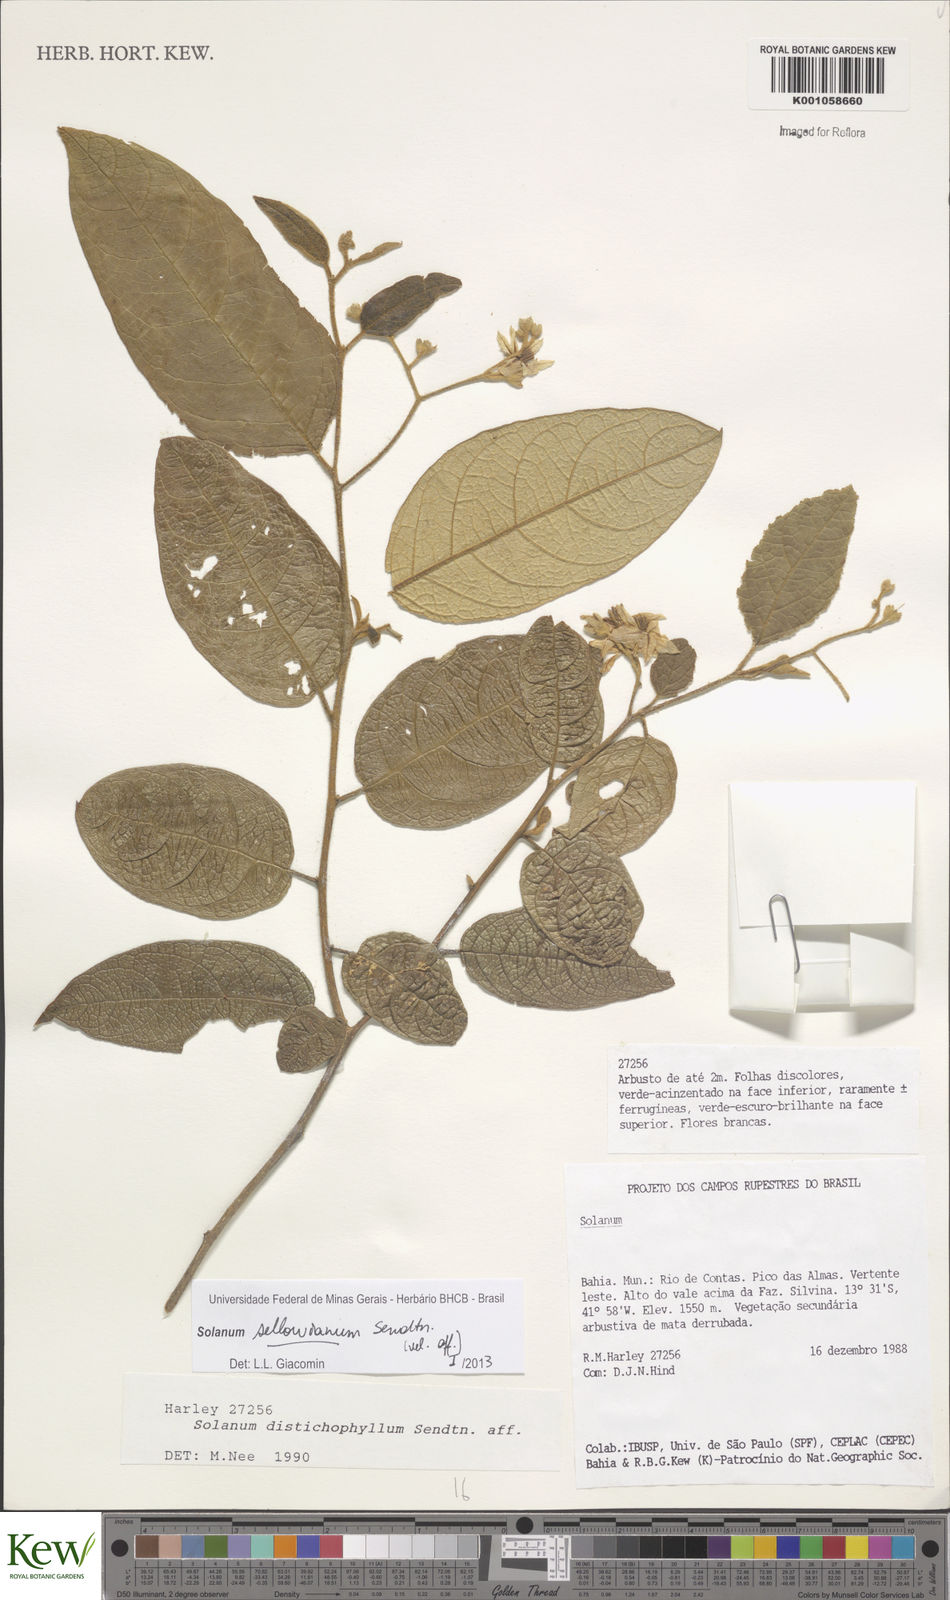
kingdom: Plantae
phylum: Tracheophyta
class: Magnoliopsida
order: Solanales
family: Solanaceae
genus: Solanum
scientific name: Solanum sellowianum
